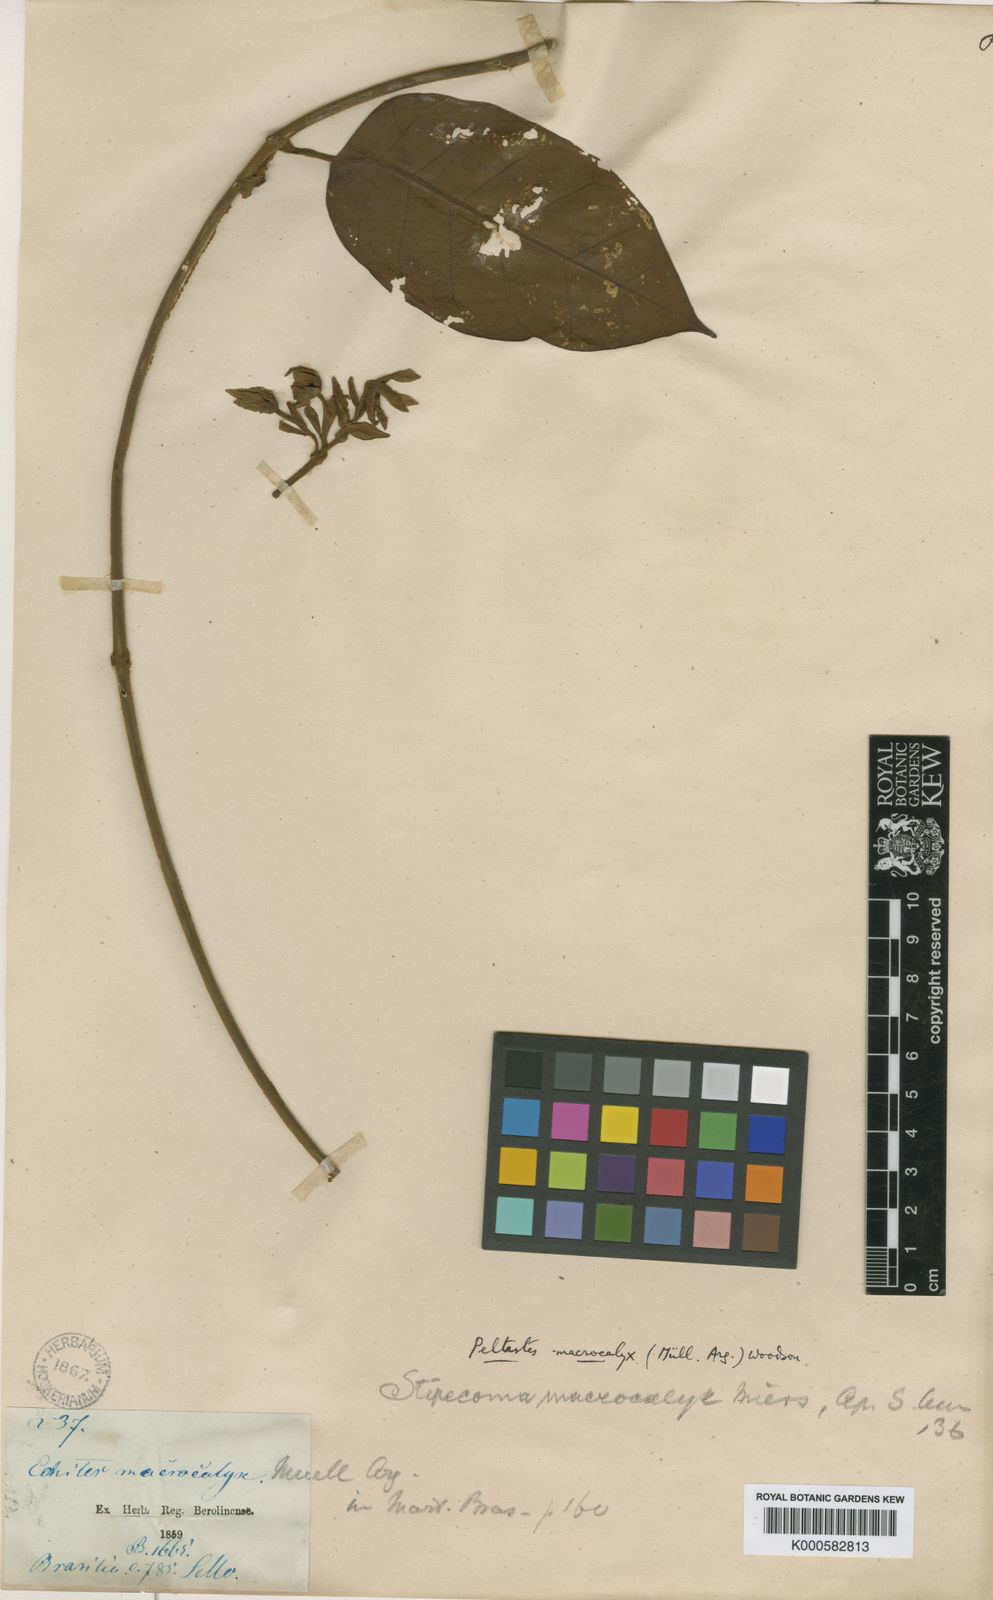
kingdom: Plantae
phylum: Tracheophyta
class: Magnoliopsida
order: Gentianales
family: Apocynaceae
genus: Macropharynx
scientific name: Macropharynx peltata
